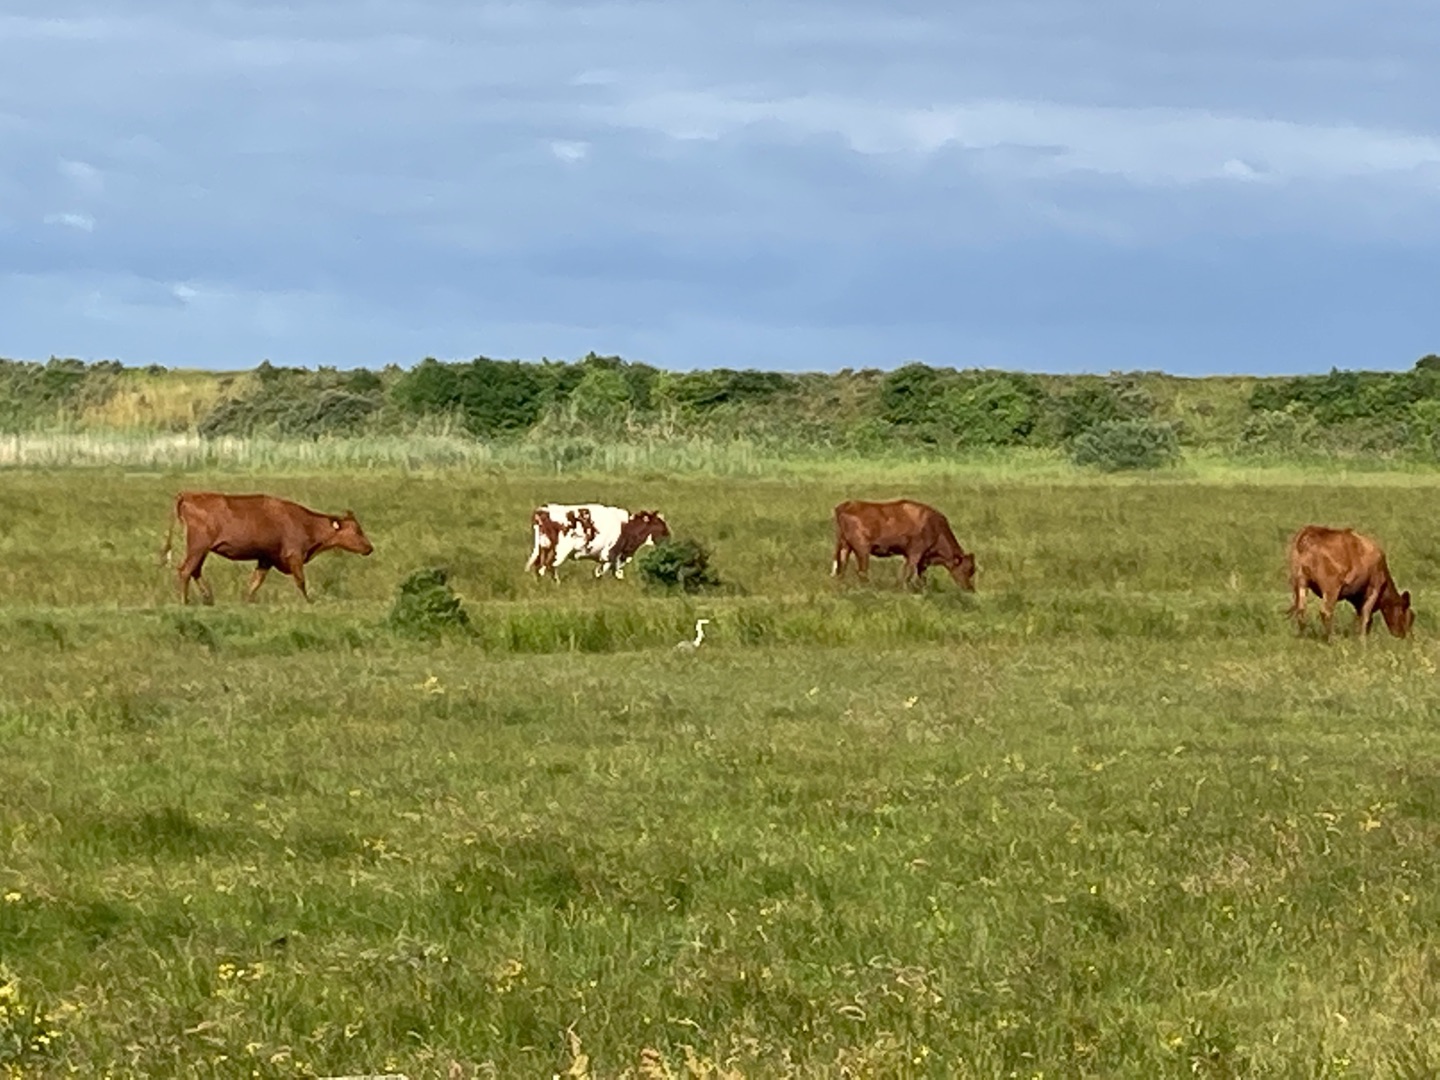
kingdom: Animalia
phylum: Chordata
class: Aves
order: Pelecaniformes
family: Ardeidae
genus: Ardea
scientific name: Ardea cinerea
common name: Fiskehejre
